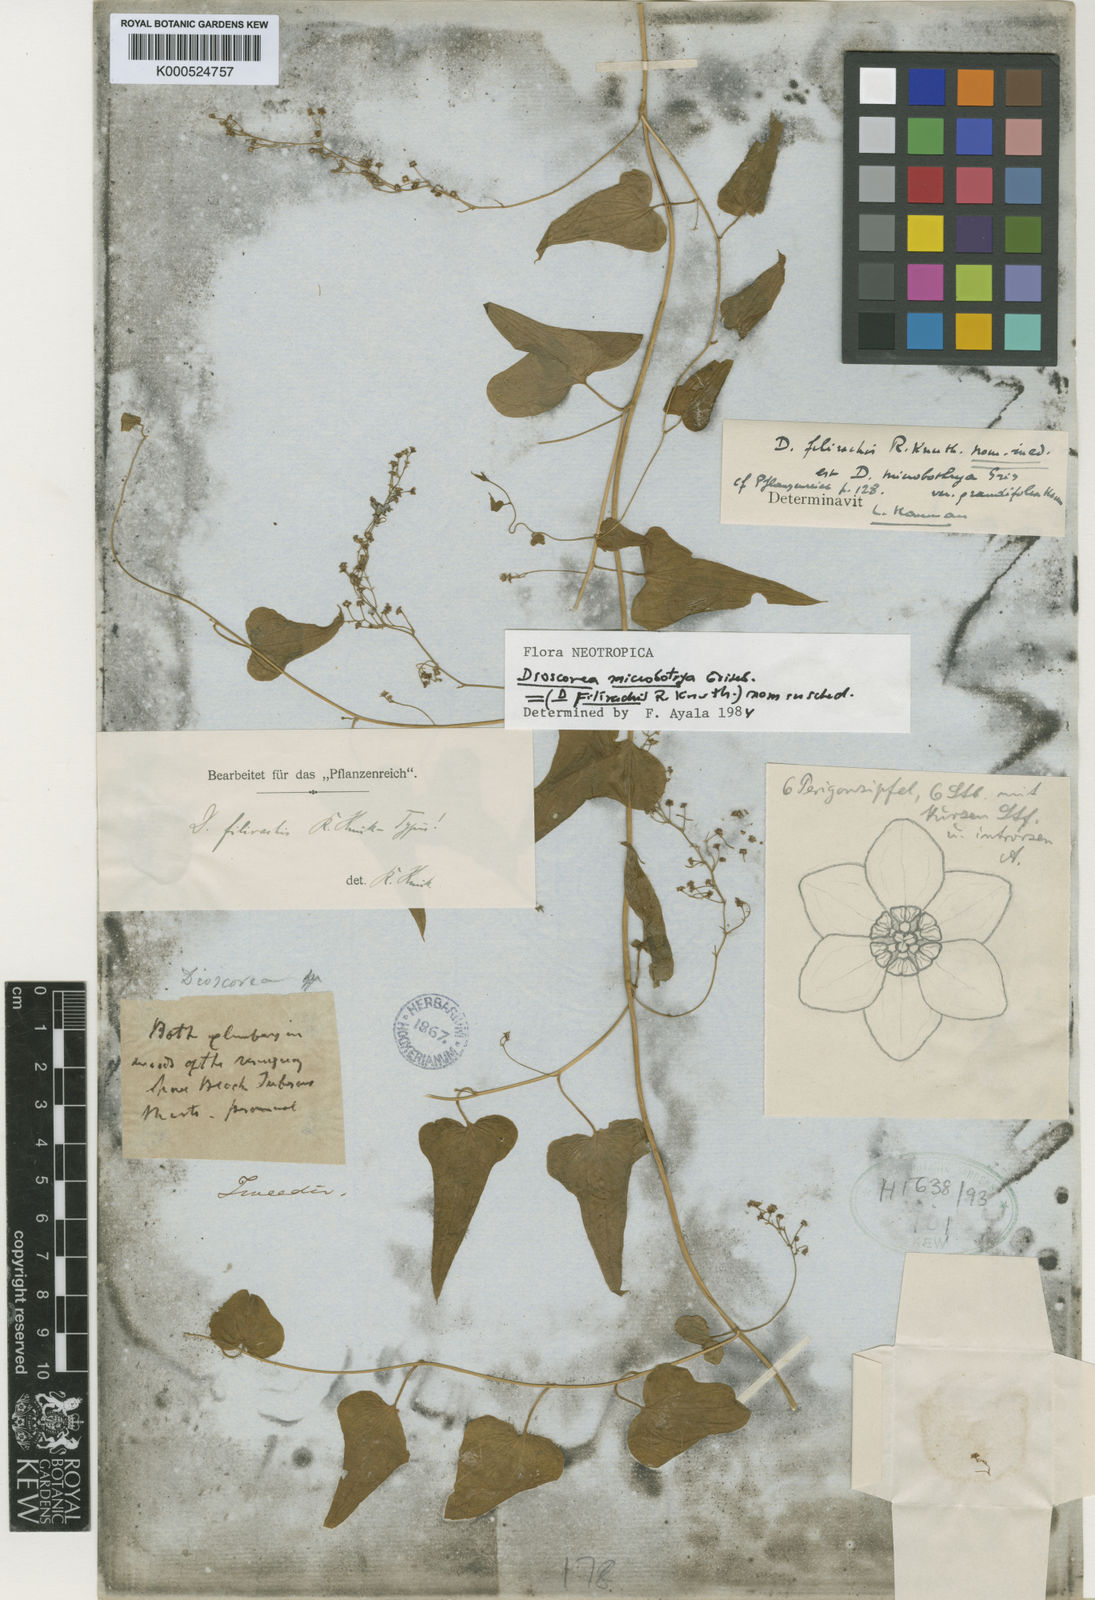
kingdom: Plantae
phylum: Tracheophyta
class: Liliopsida
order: Dioscoreales
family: Dioscoreaceae
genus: Dioscorea
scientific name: Dioscorea microbotrya
